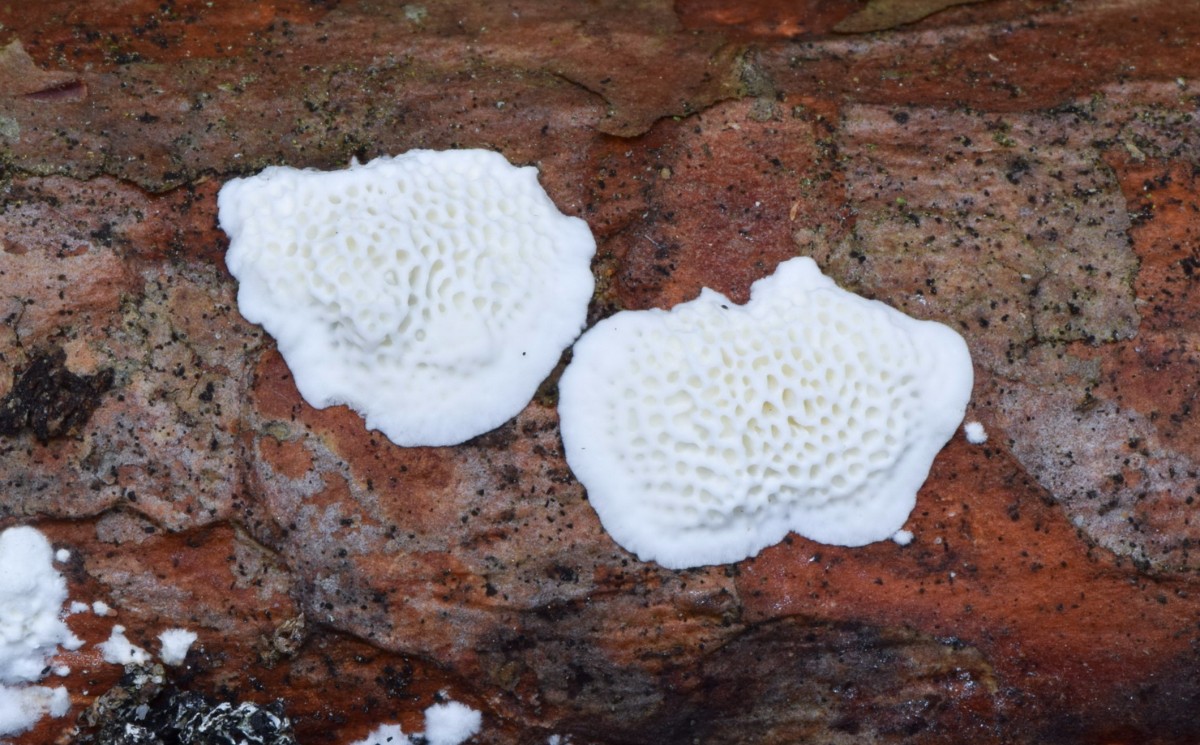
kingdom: Fungi
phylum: Basidiomycota
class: Agaricomycetes
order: Polyporales
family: Fomitopsidaceae
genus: Fomitopsis
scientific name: Fomitopsis
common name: fyrre-skiveporesvamp
